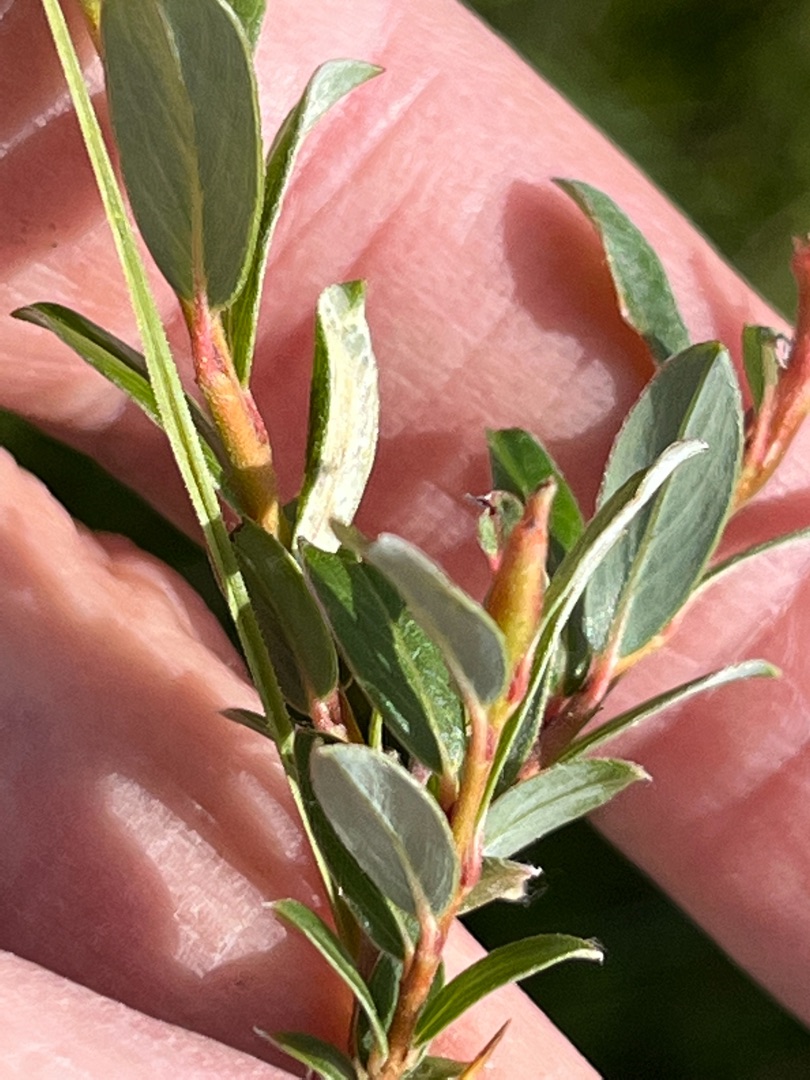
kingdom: Animalia
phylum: Arthropoda
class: Insecta
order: Diptera
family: Cecidomyiidae
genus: Rabdophaga
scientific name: Rabdophaga schicki
